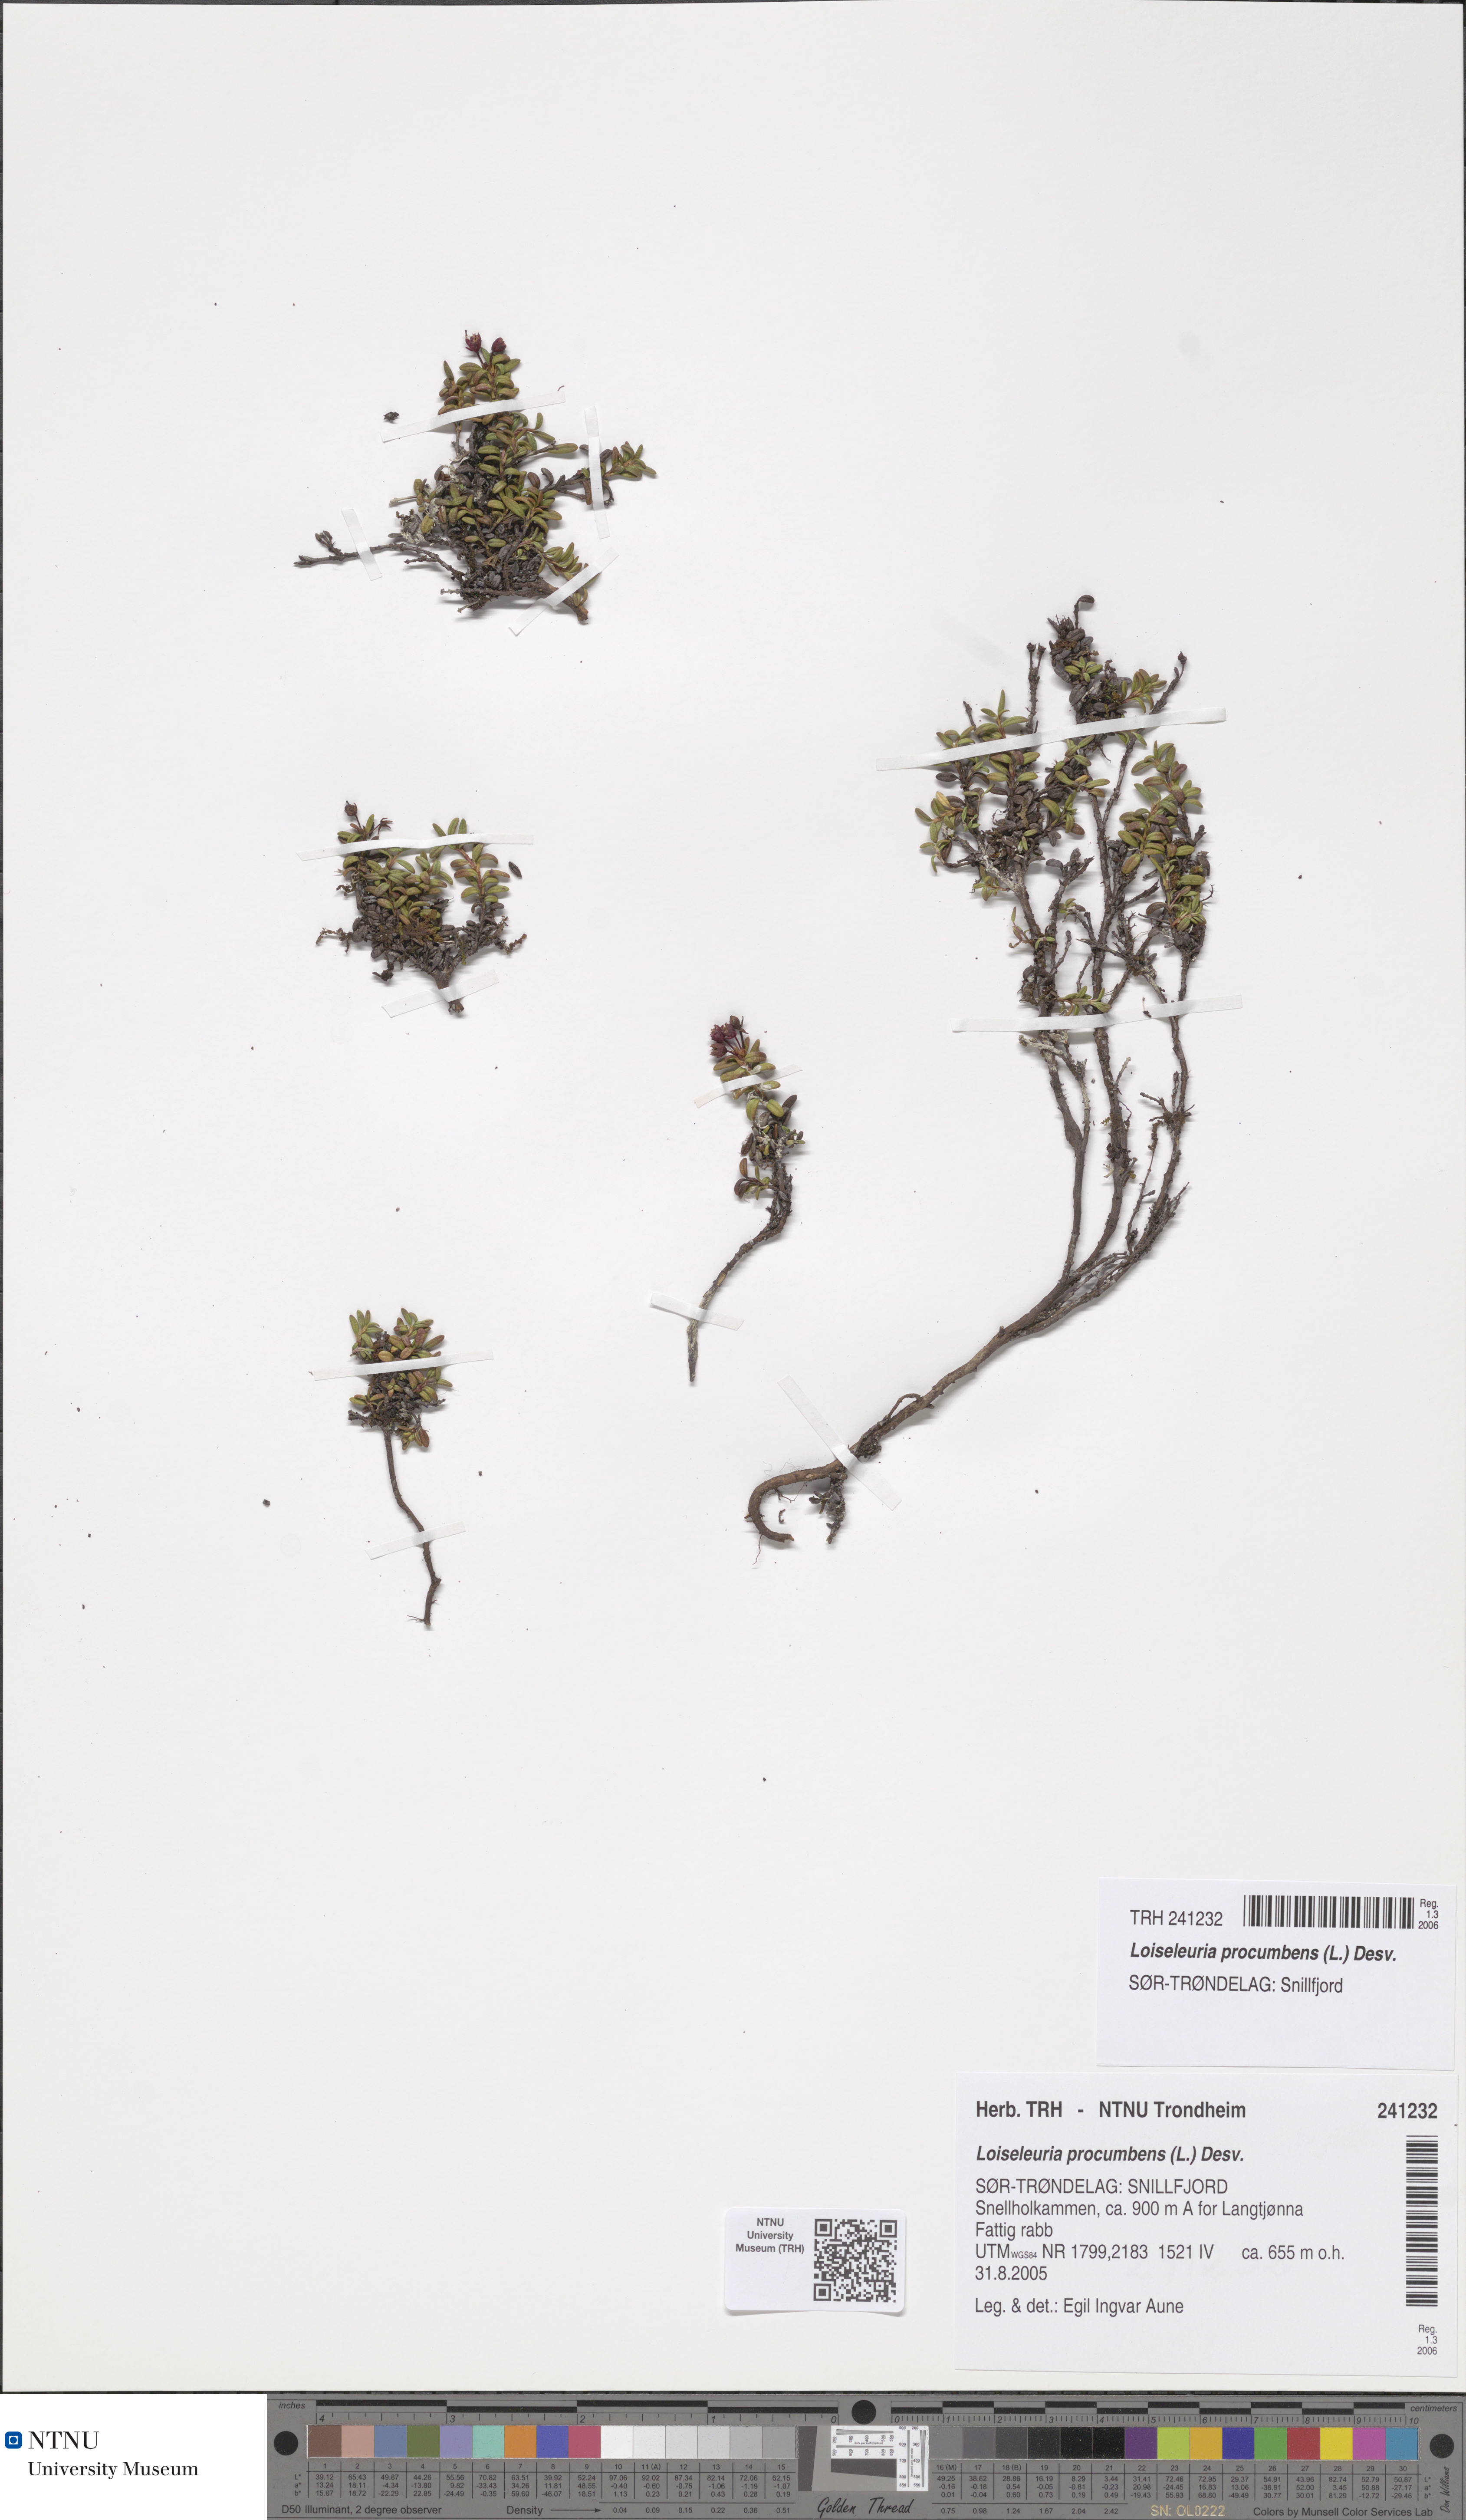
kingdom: Plantae
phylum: Tracheophyta
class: Magnoliopsida
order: Ericales
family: Ericaceae
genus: Kalmia
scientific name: Kalmia procumbens
